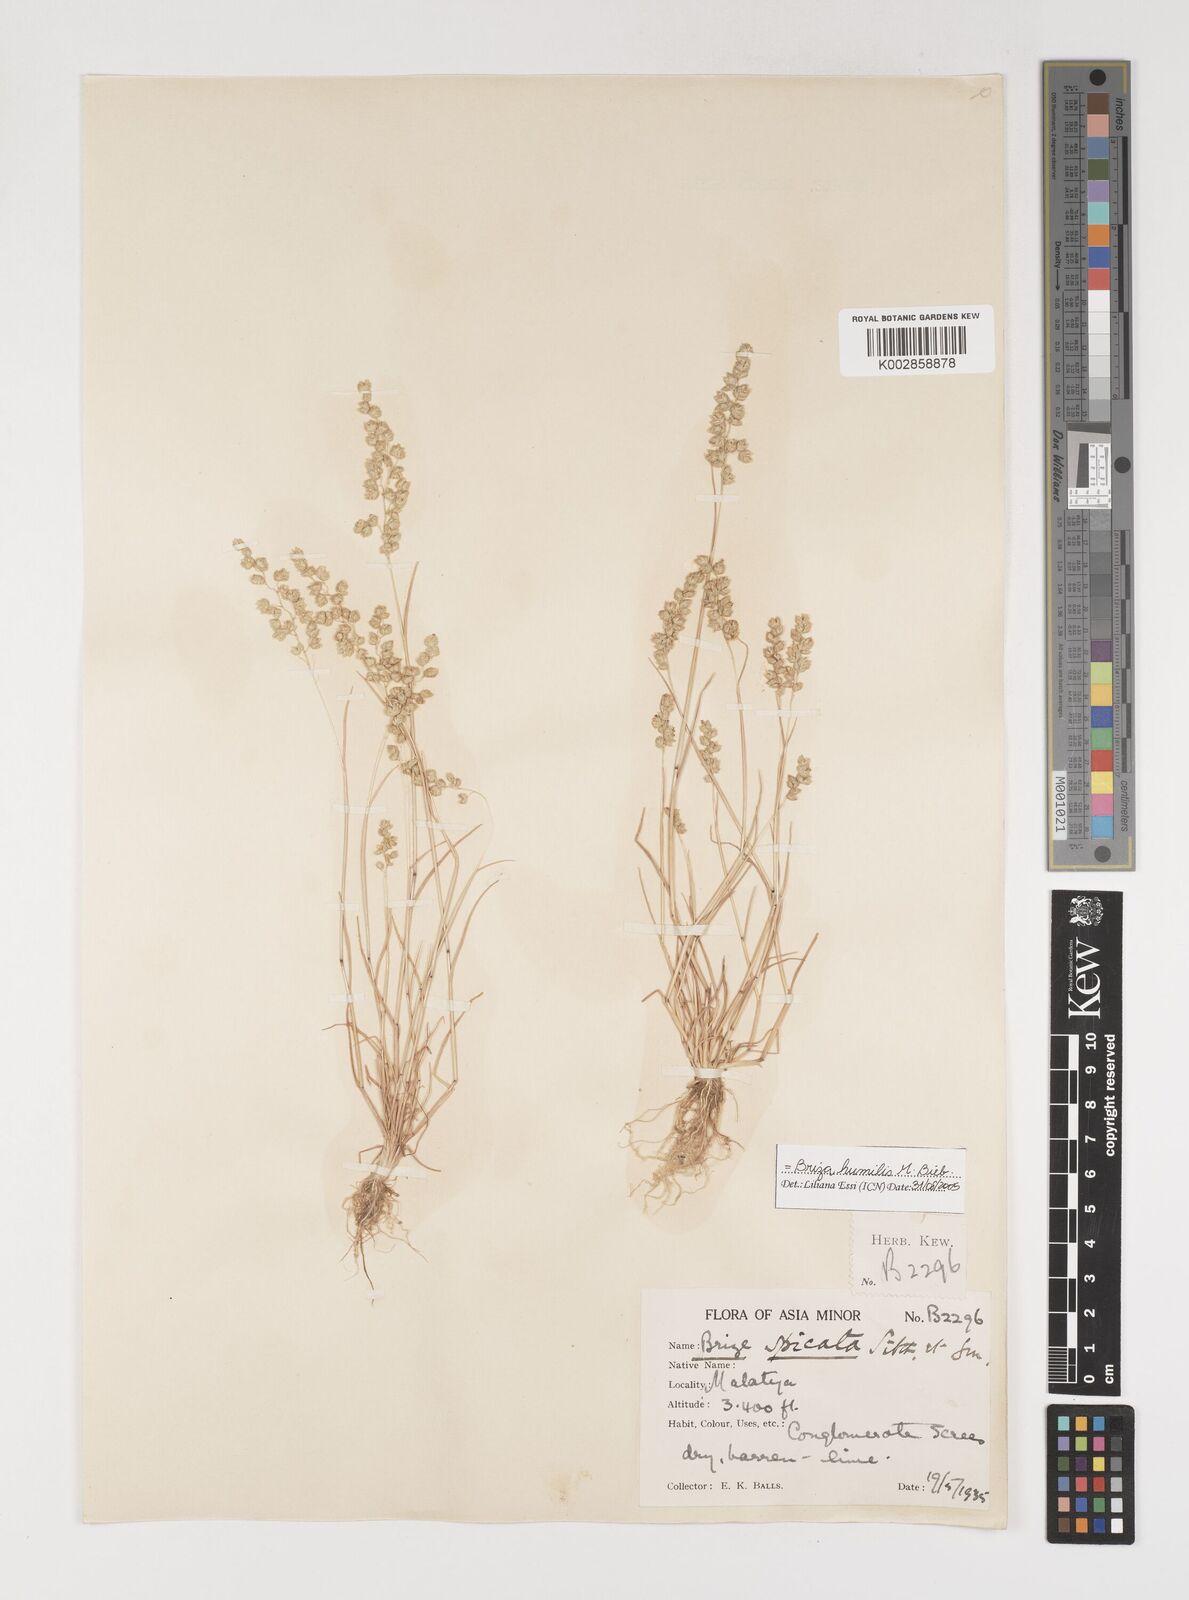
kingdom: Plantae
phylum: Tracheophyta
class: Liliopsida
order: Poales
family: Poaceae
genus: Briza
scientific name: Briza humilis
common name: Spiked quaking grass
